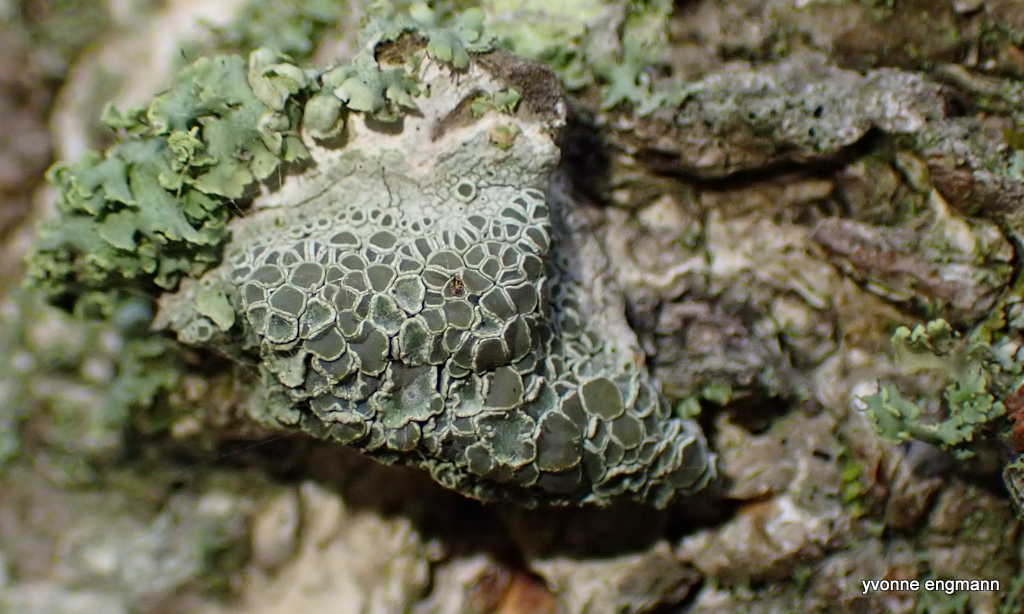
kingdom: Fungi
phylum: Ascomycota
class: Lecanoromycetes
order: Lecanorales
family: Lecanoraceae
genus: Lecanora
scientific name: Lecanora chlarotera
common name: brun kantskivelav
